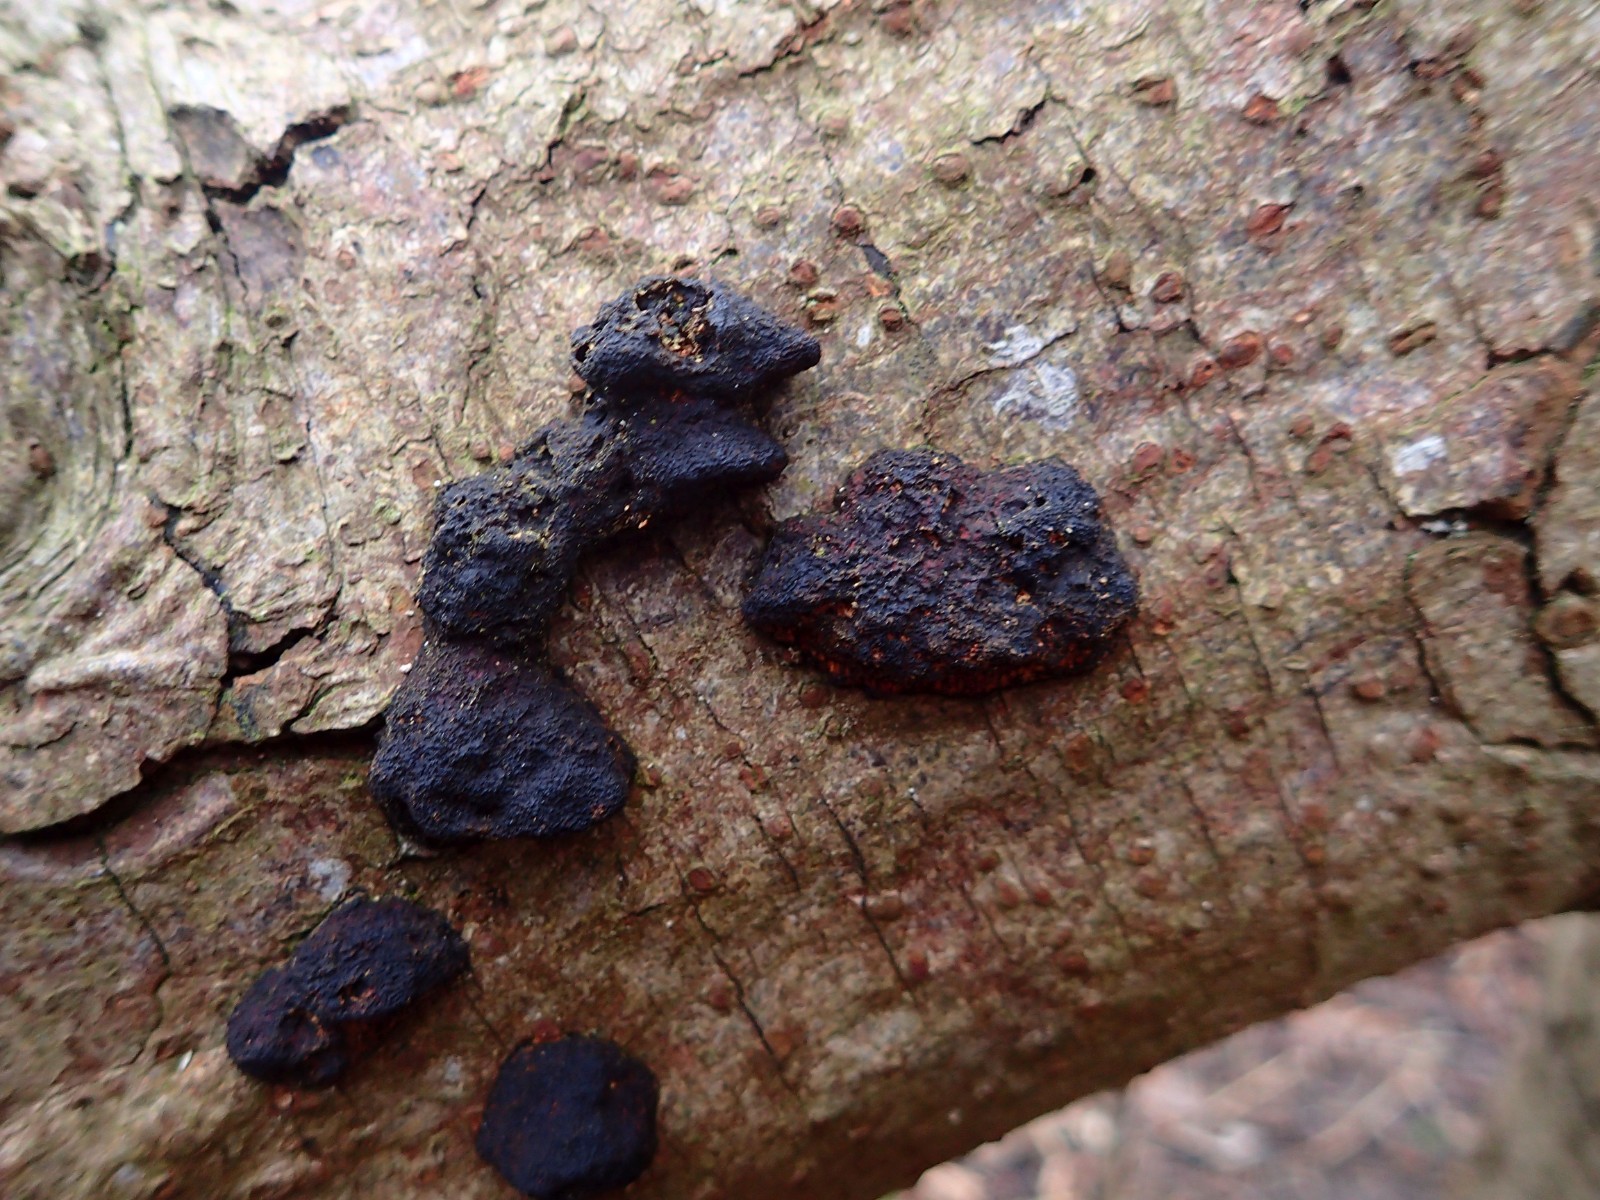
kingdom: Fungi
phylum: Basidiomycota
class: Agaricomycetes
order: Auriculariales
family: Auriculariaceae
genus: Exidia
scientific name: Exidia glandulosa
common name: ege-bævretop
